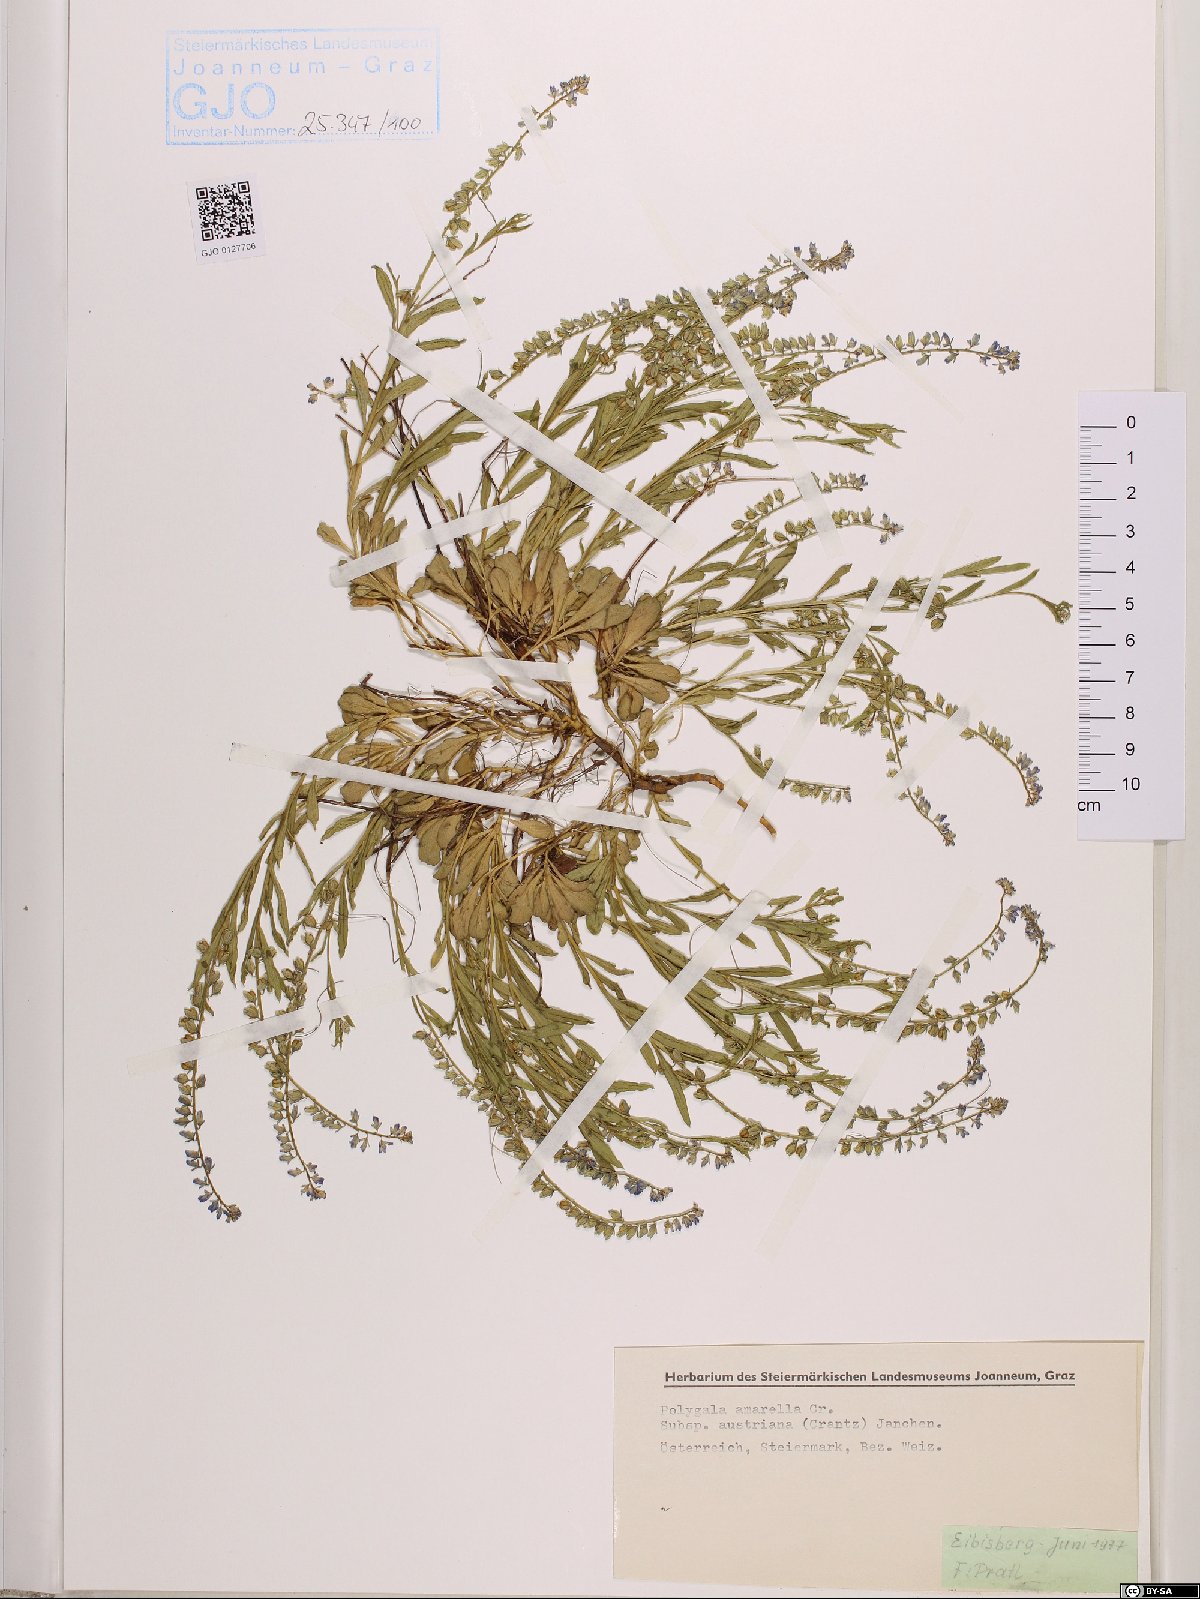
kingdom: Plantae
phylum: Tracheophyta
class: Magnoliopsida
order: Fabales
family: Polygalaceae
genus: Polygala
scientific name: Polygala amarella
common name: Dwarf milkwort
